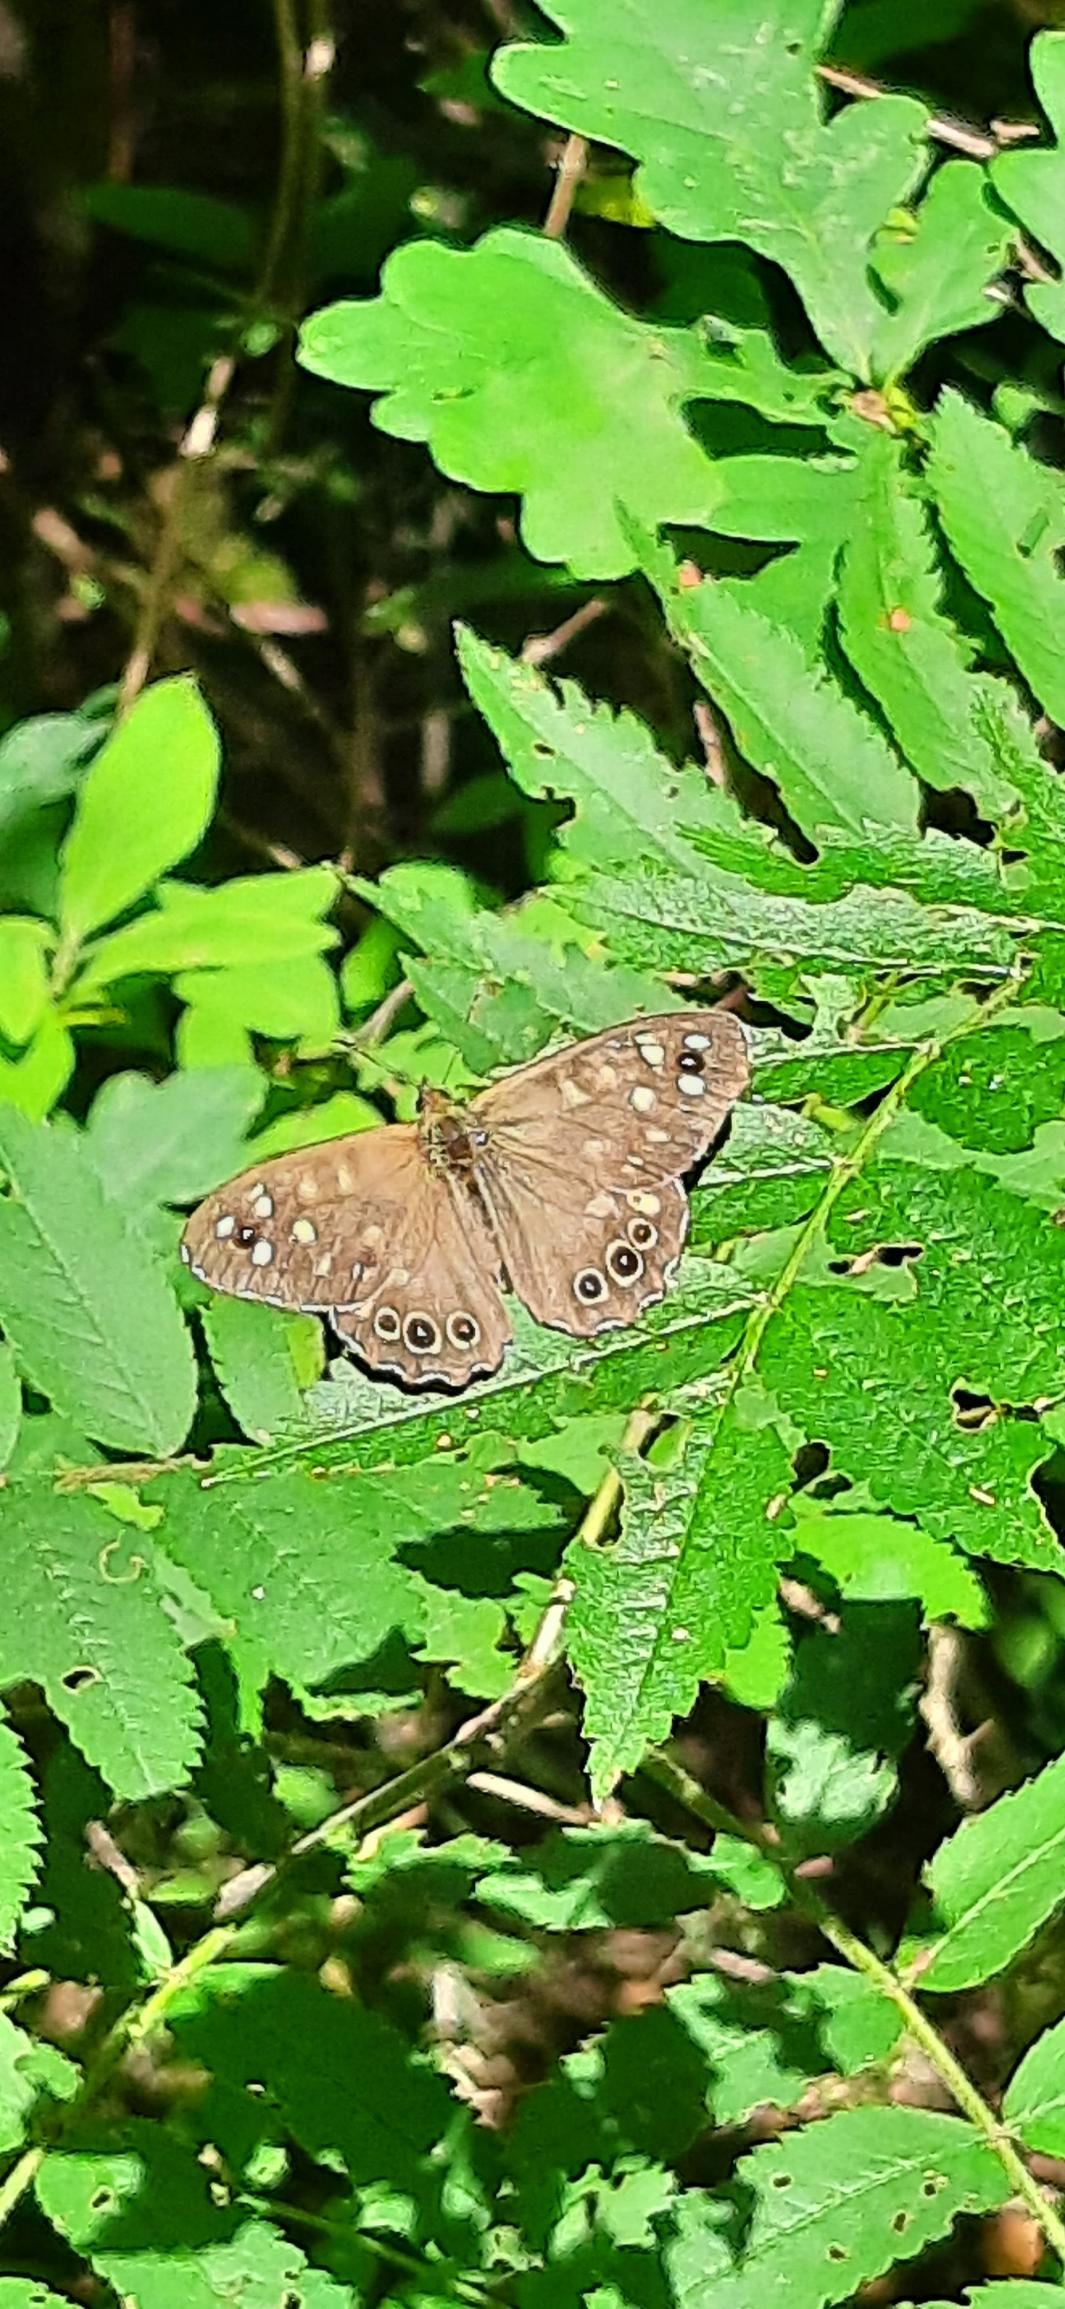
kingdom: Animalia
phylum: Arthropoda
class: Insecta
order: Lepidoptera
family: Nymphalidae
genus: Pararge
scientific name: Pararge aegeria
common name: Skovrandøje
